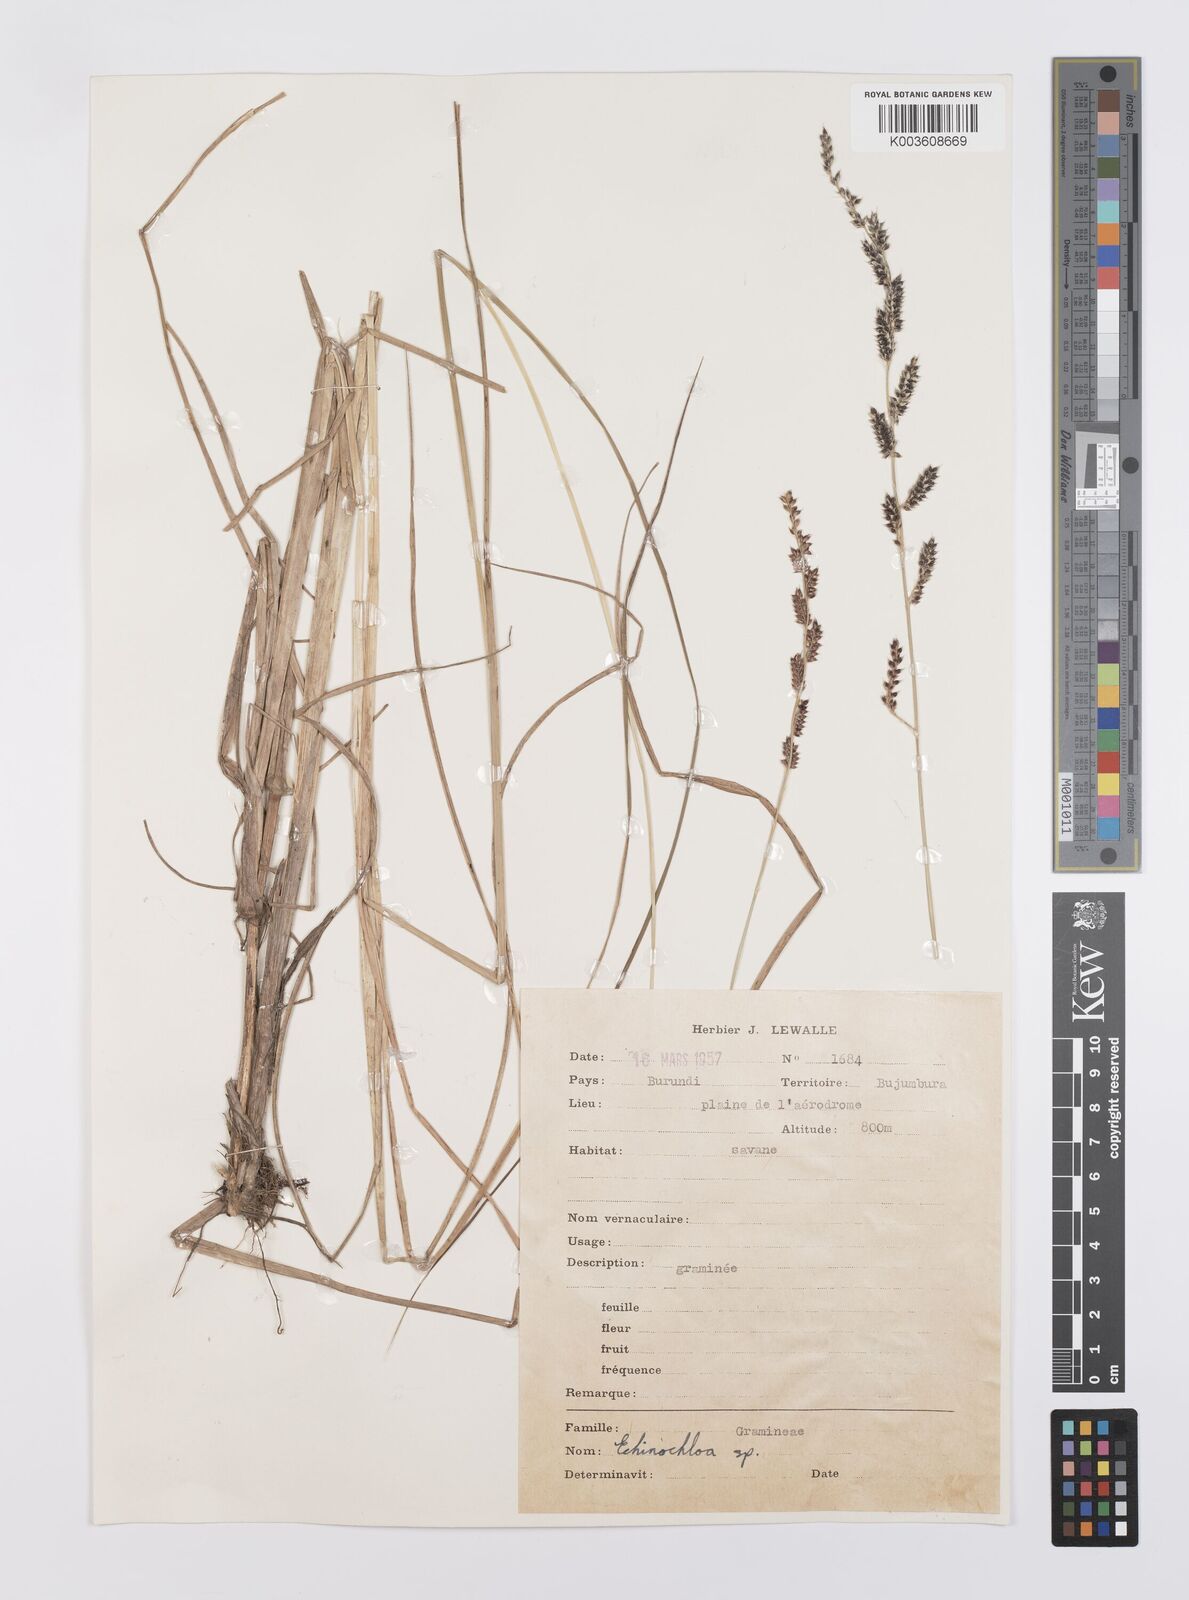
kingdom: Plantae
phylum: Tracheophyta
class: Liliopsida
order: Poales
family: Poaceae
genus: Echinochloa
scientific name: Echinochloa haploclada
